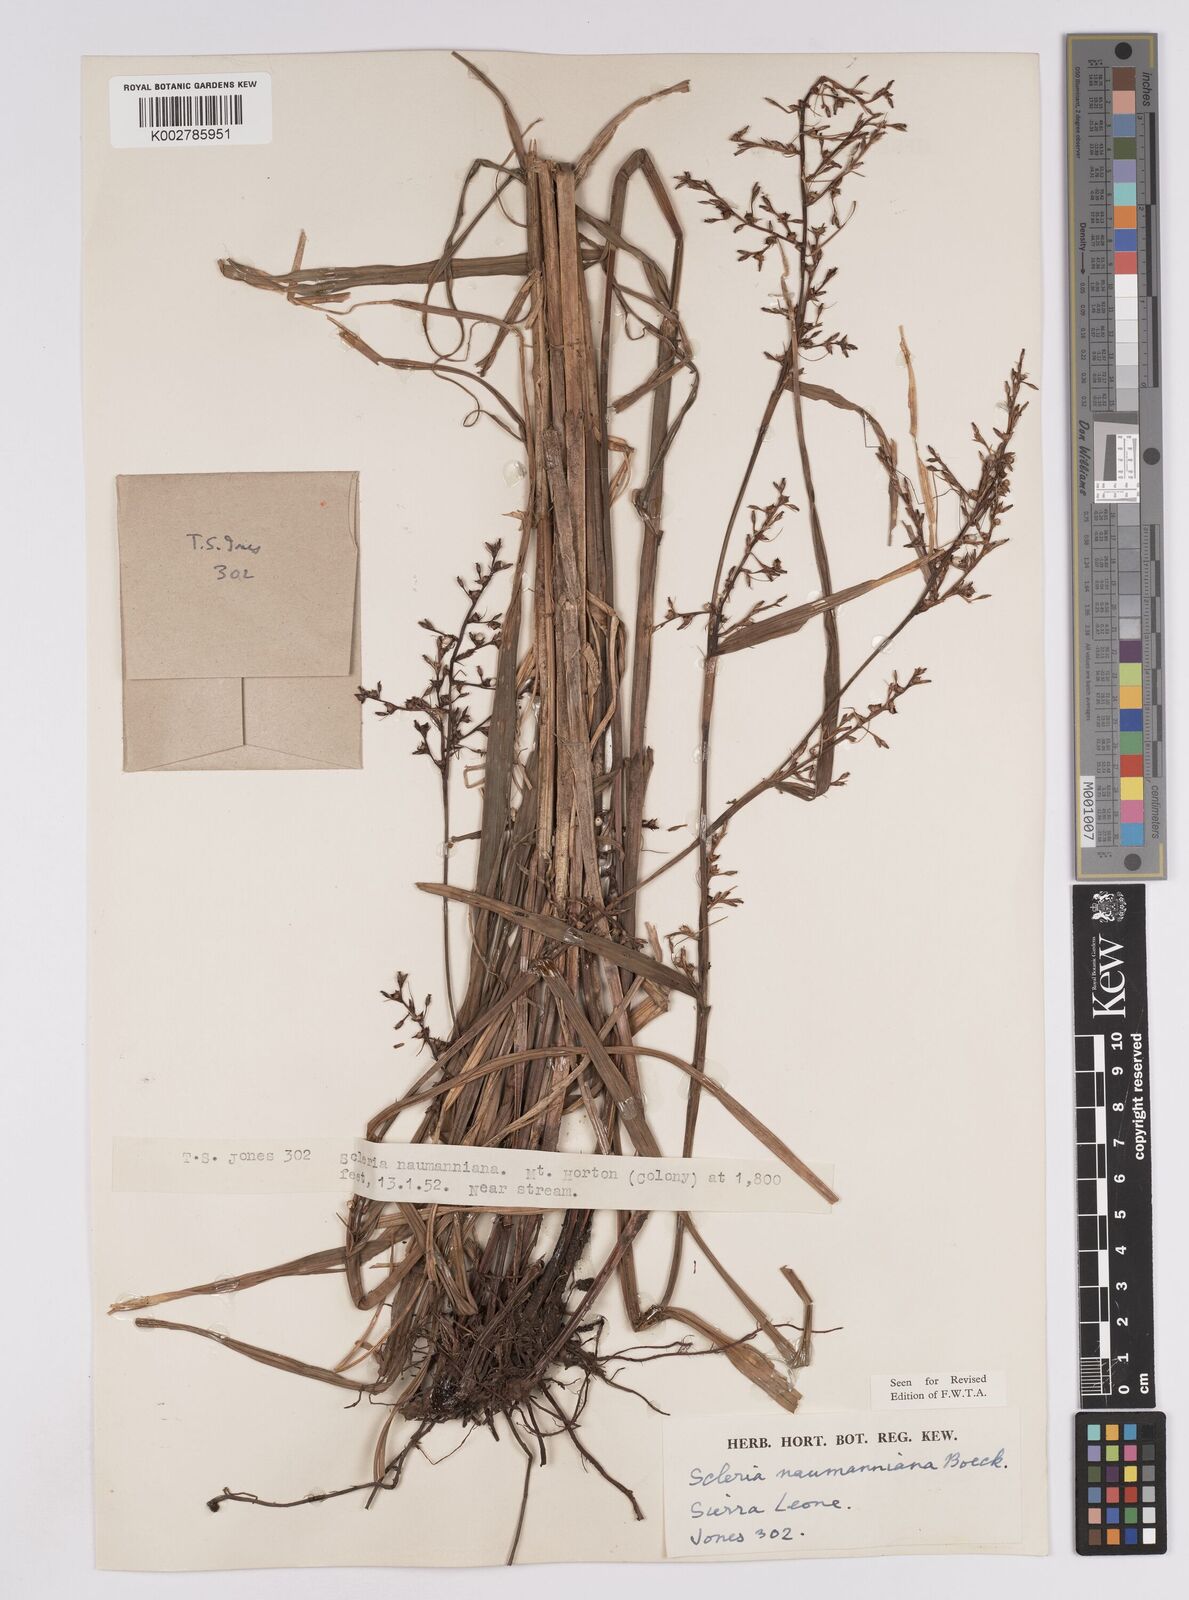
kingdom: Plantae
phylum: Tracheophyta
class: Liliopsida
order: Poales
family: Cyperaceae
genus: Scleria
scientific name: Scleria naumanniana
